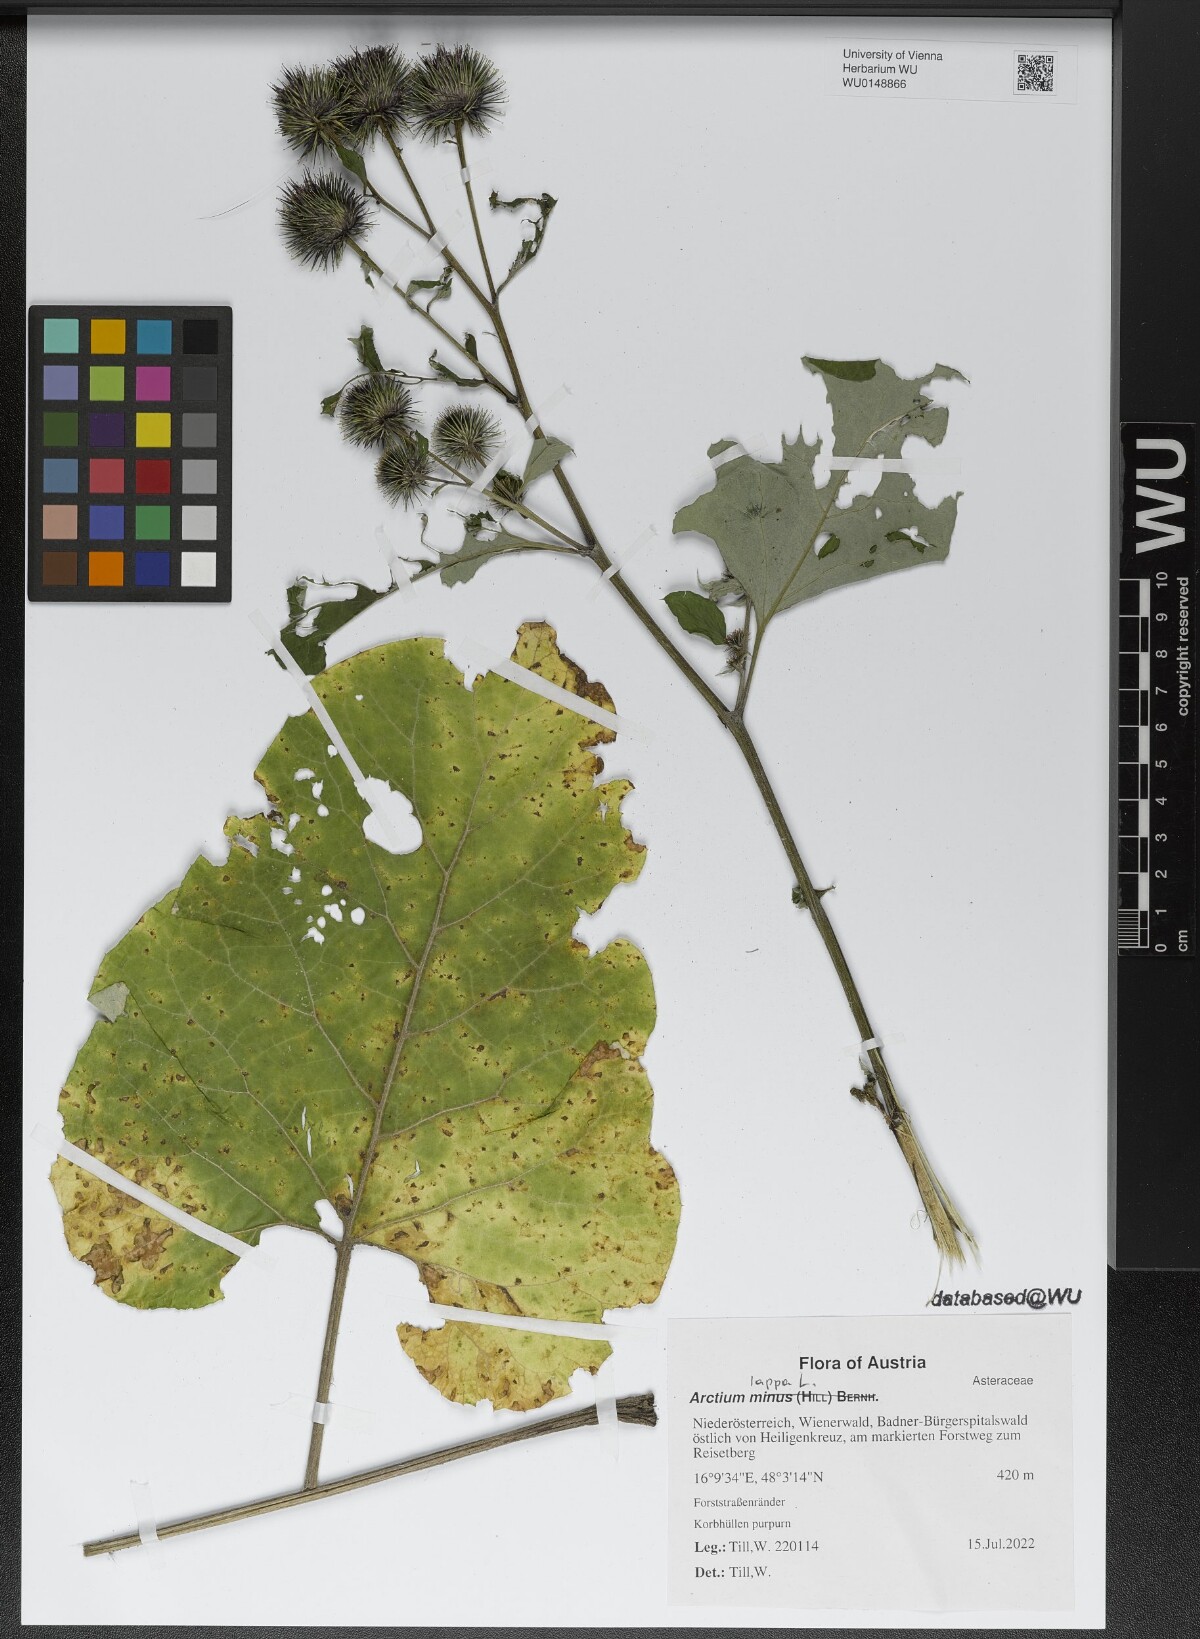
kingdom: Plantae
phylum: Tracheophyta
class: Magnoliopsida
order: Asterales
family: Asteraceae
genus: Arctium
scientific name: Arctium lappa
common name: Greater burdock
